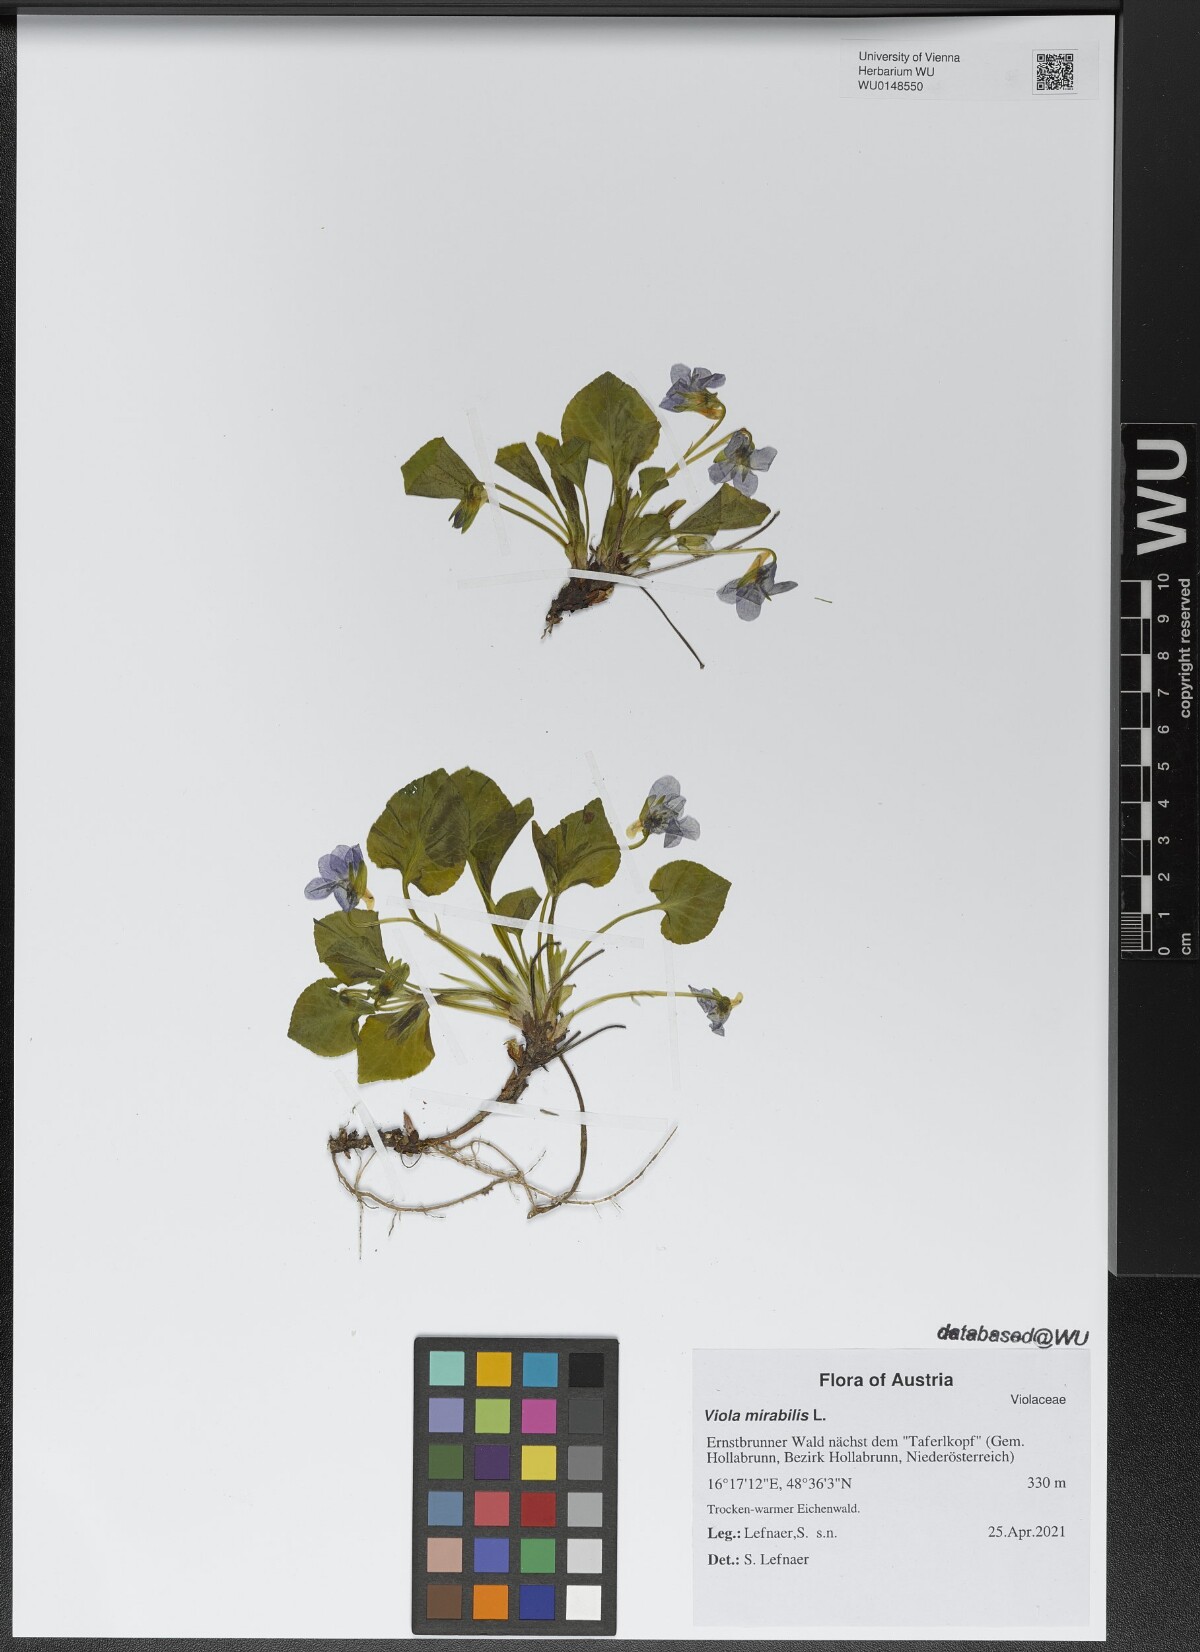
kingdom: Plantae
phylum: Tracheophyta
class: Magnoliopsida
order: Malpighiales
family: Violaceae
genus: Viola
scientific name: Viola mirabilis
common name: Wonder violet
